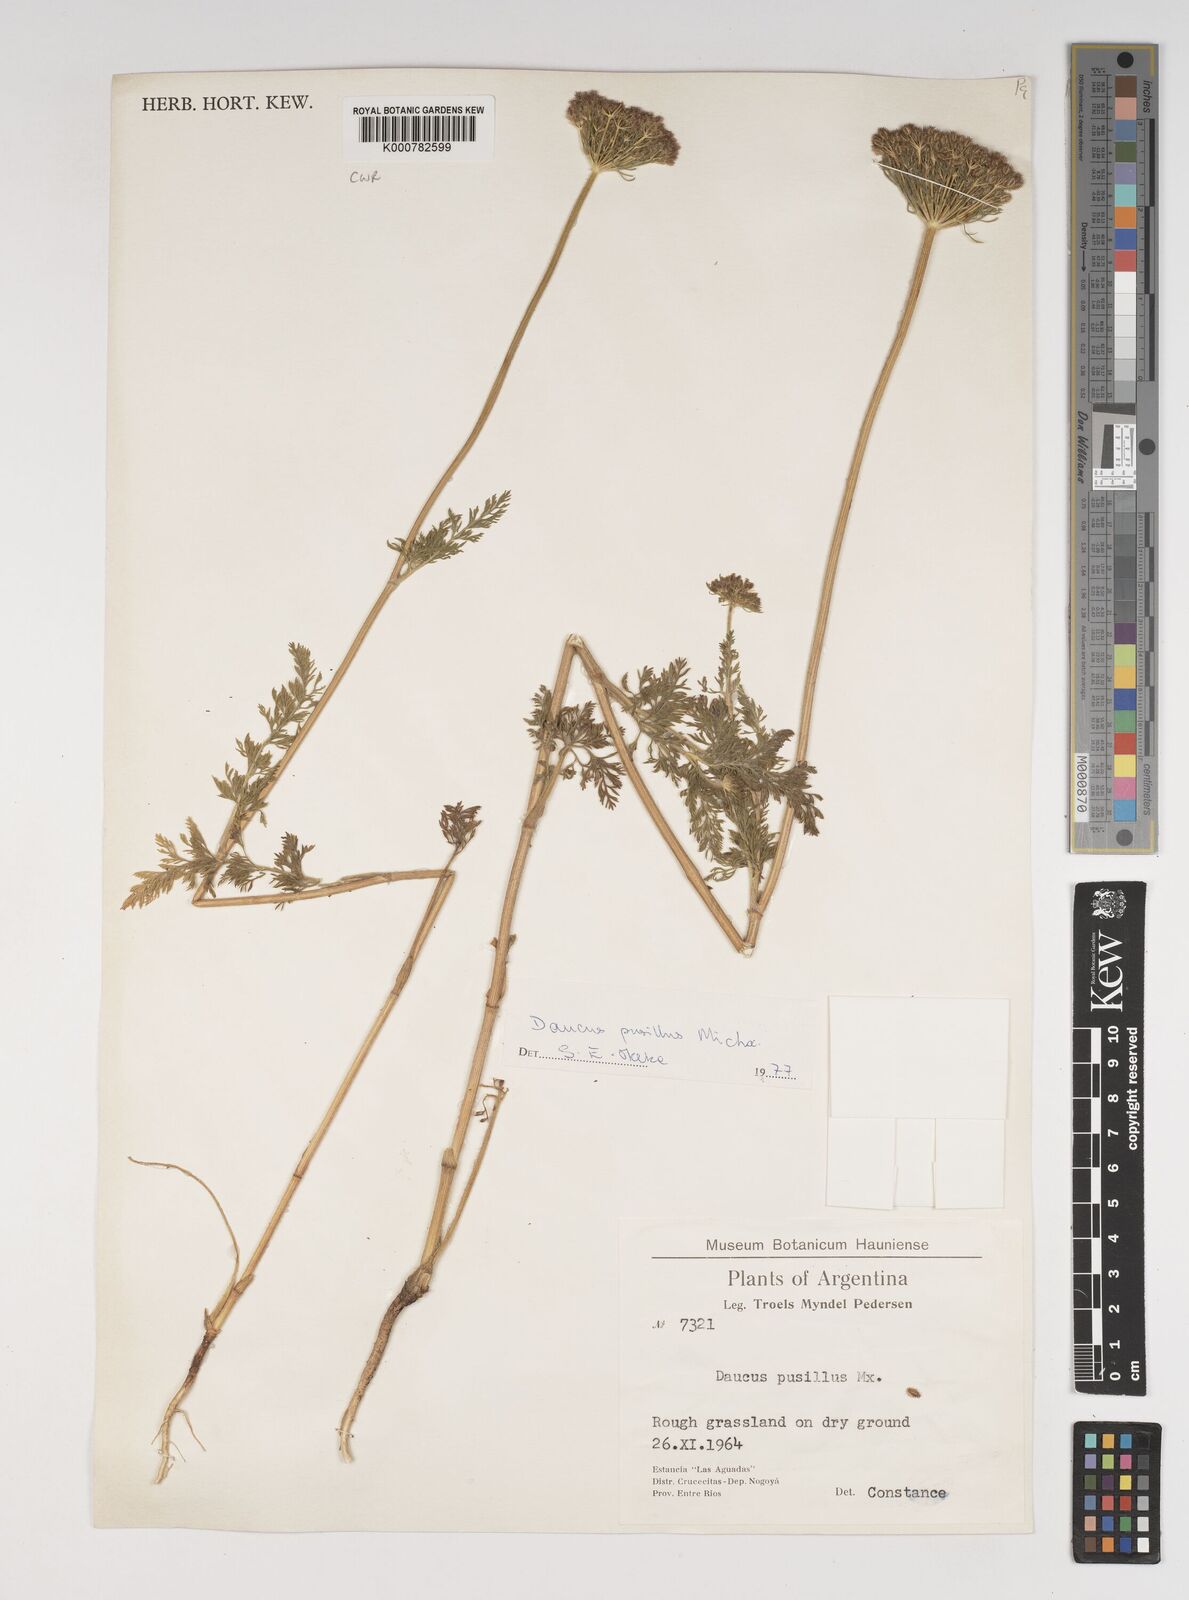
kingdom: Plantae
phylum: Tracheophyta
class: Magnoliopsida
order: Apiales
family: Apiaceae
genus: Daucus
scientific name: Daucus pusillus
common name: Southwest wild carrot
